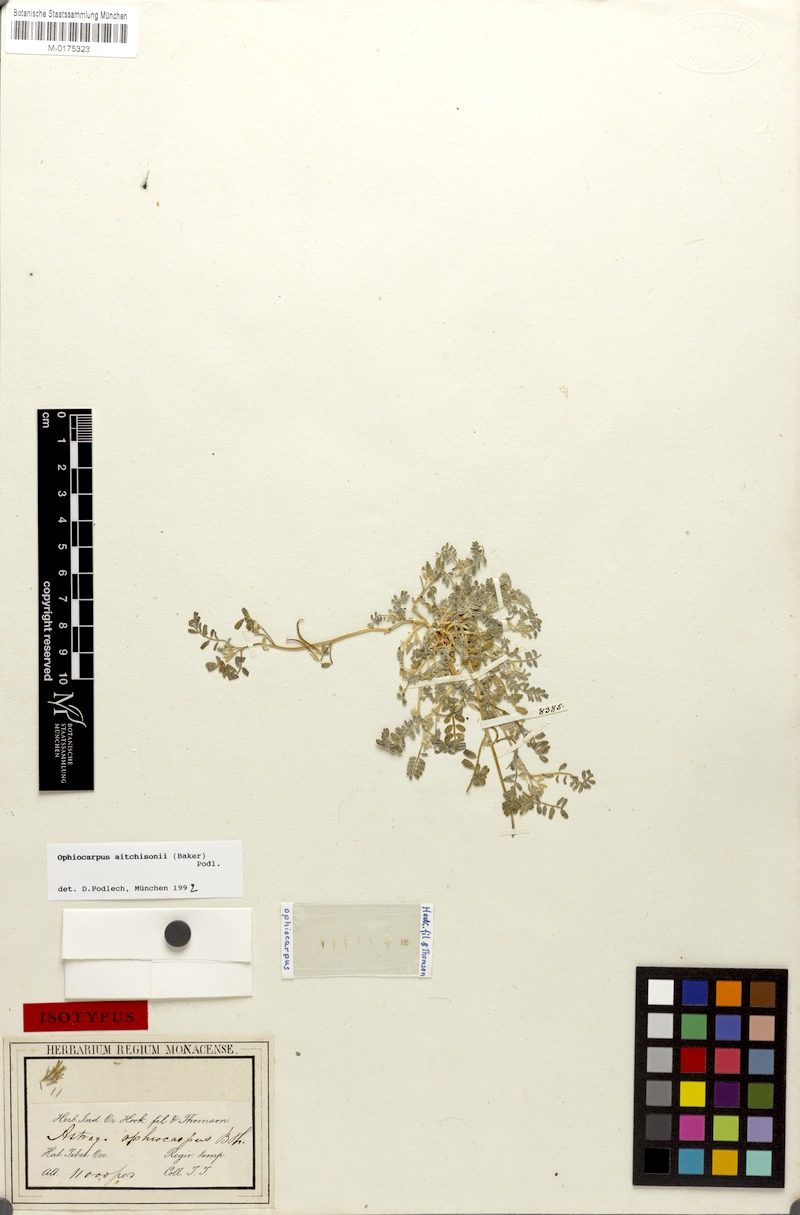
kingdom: Plantae
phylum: Tracheophyta
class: Magnoliopsida
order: Fabales
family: Fabaceae
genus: Astragalus
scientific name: Astragalus ophiocarpus
